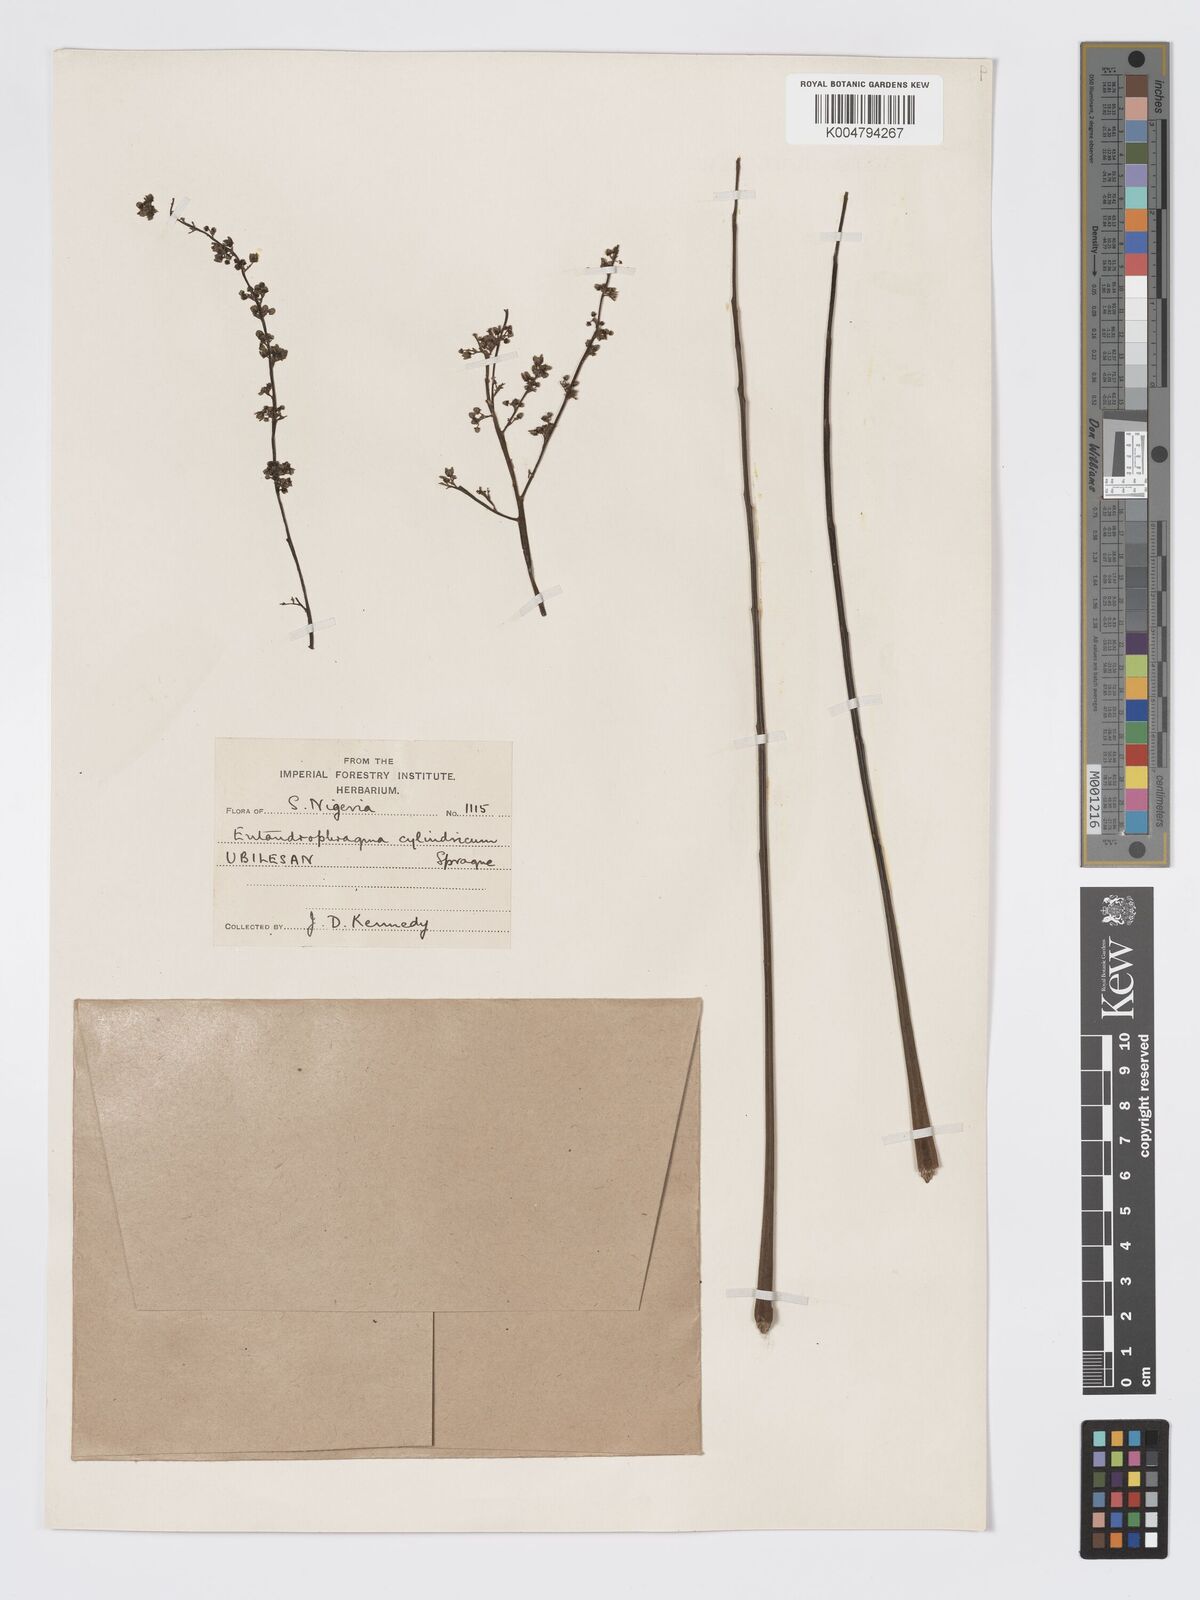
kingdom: Plantae
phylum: Tracheophyta
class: Magnoliopsida
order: Sapindales
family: Meliaceae
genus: Entandrophragma
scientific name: Entandrophragma cylindricum
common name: Sapele
